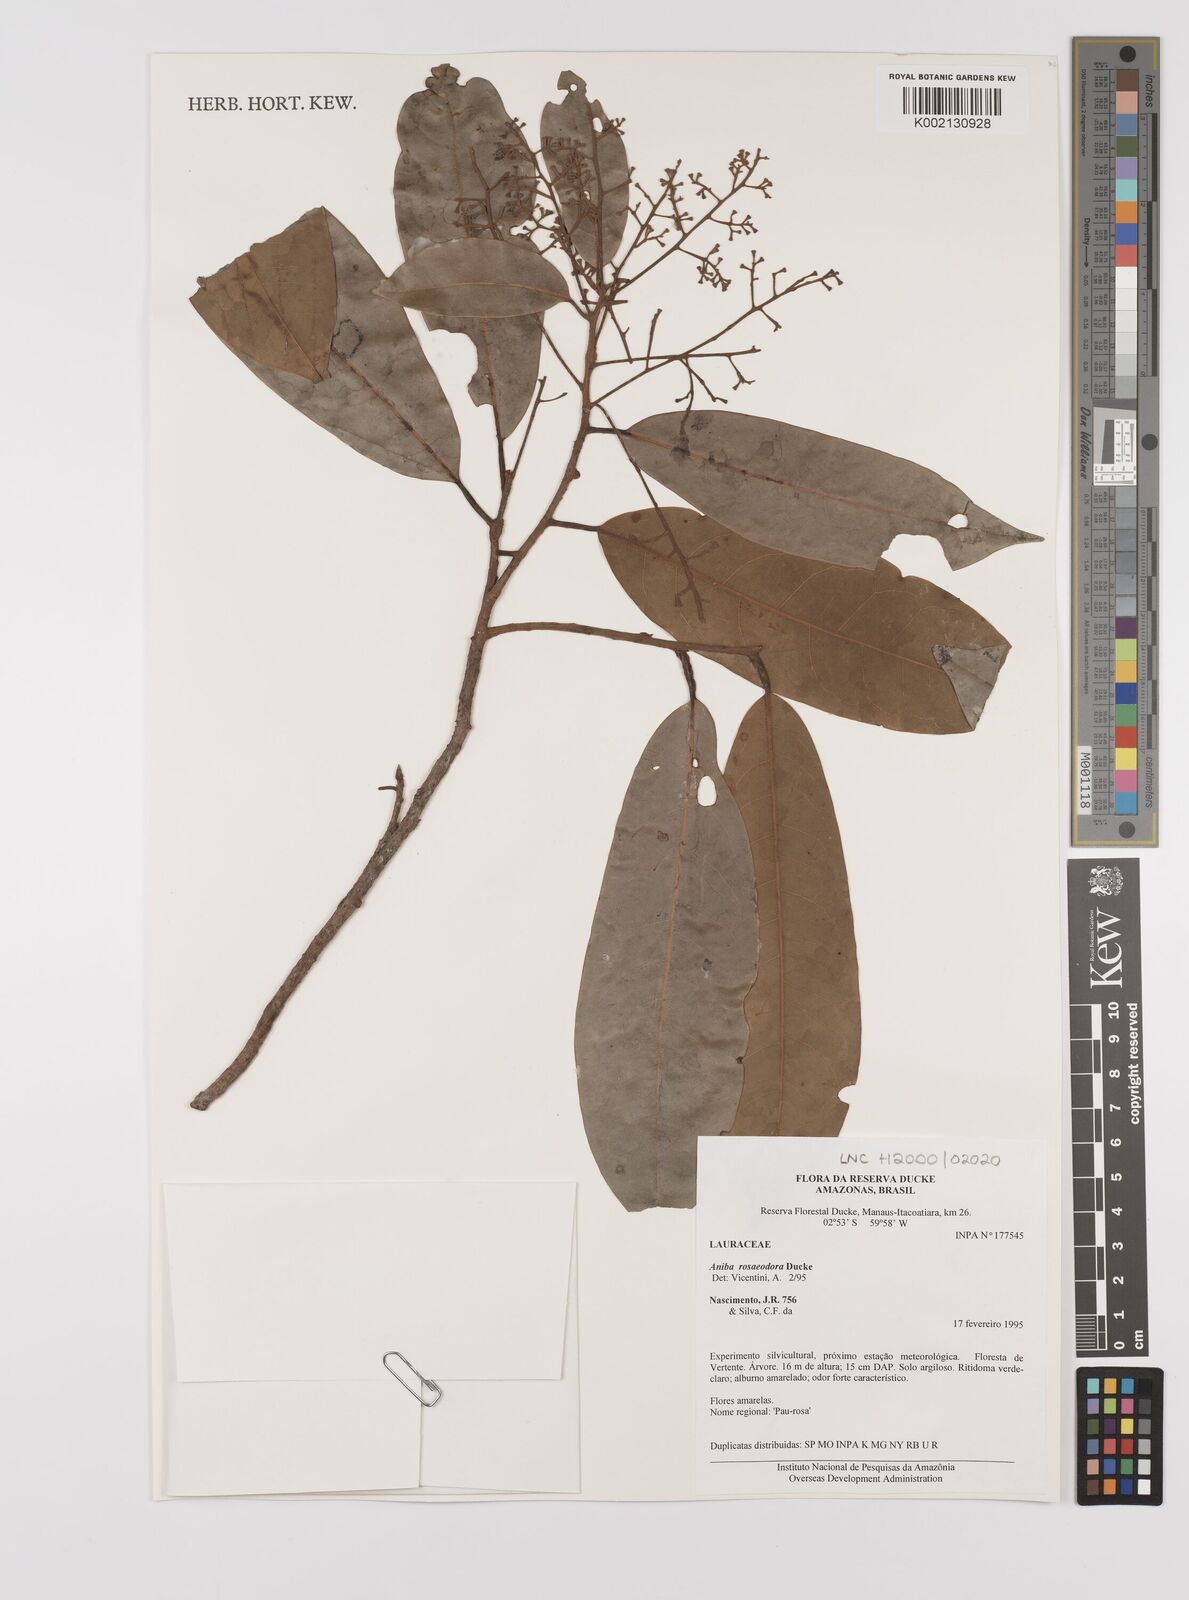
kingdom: Plantae
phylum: Tracheophyta
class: Magnoliopsida
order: Laurales
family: Lauraceae
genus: Aniba
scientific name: Aniba rosodora
